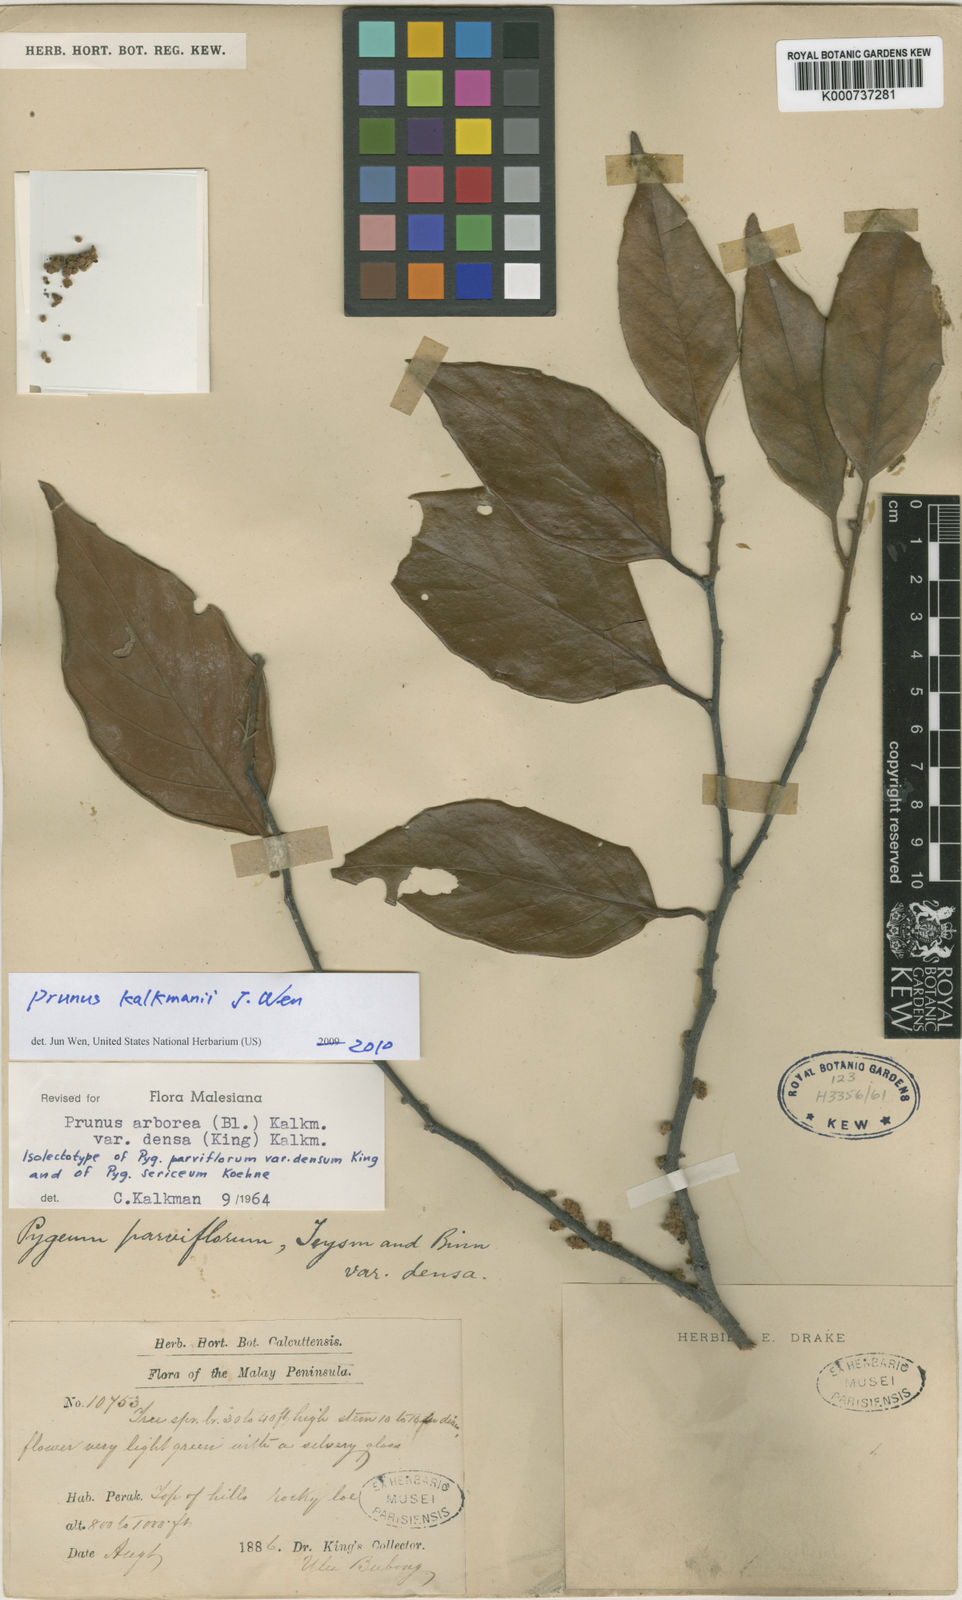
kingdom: Plantae
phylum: Tracheophyta
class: Magnoliopsida
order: Rosales
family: Rosaceae
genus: Prunus
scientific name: Prunus arborea
